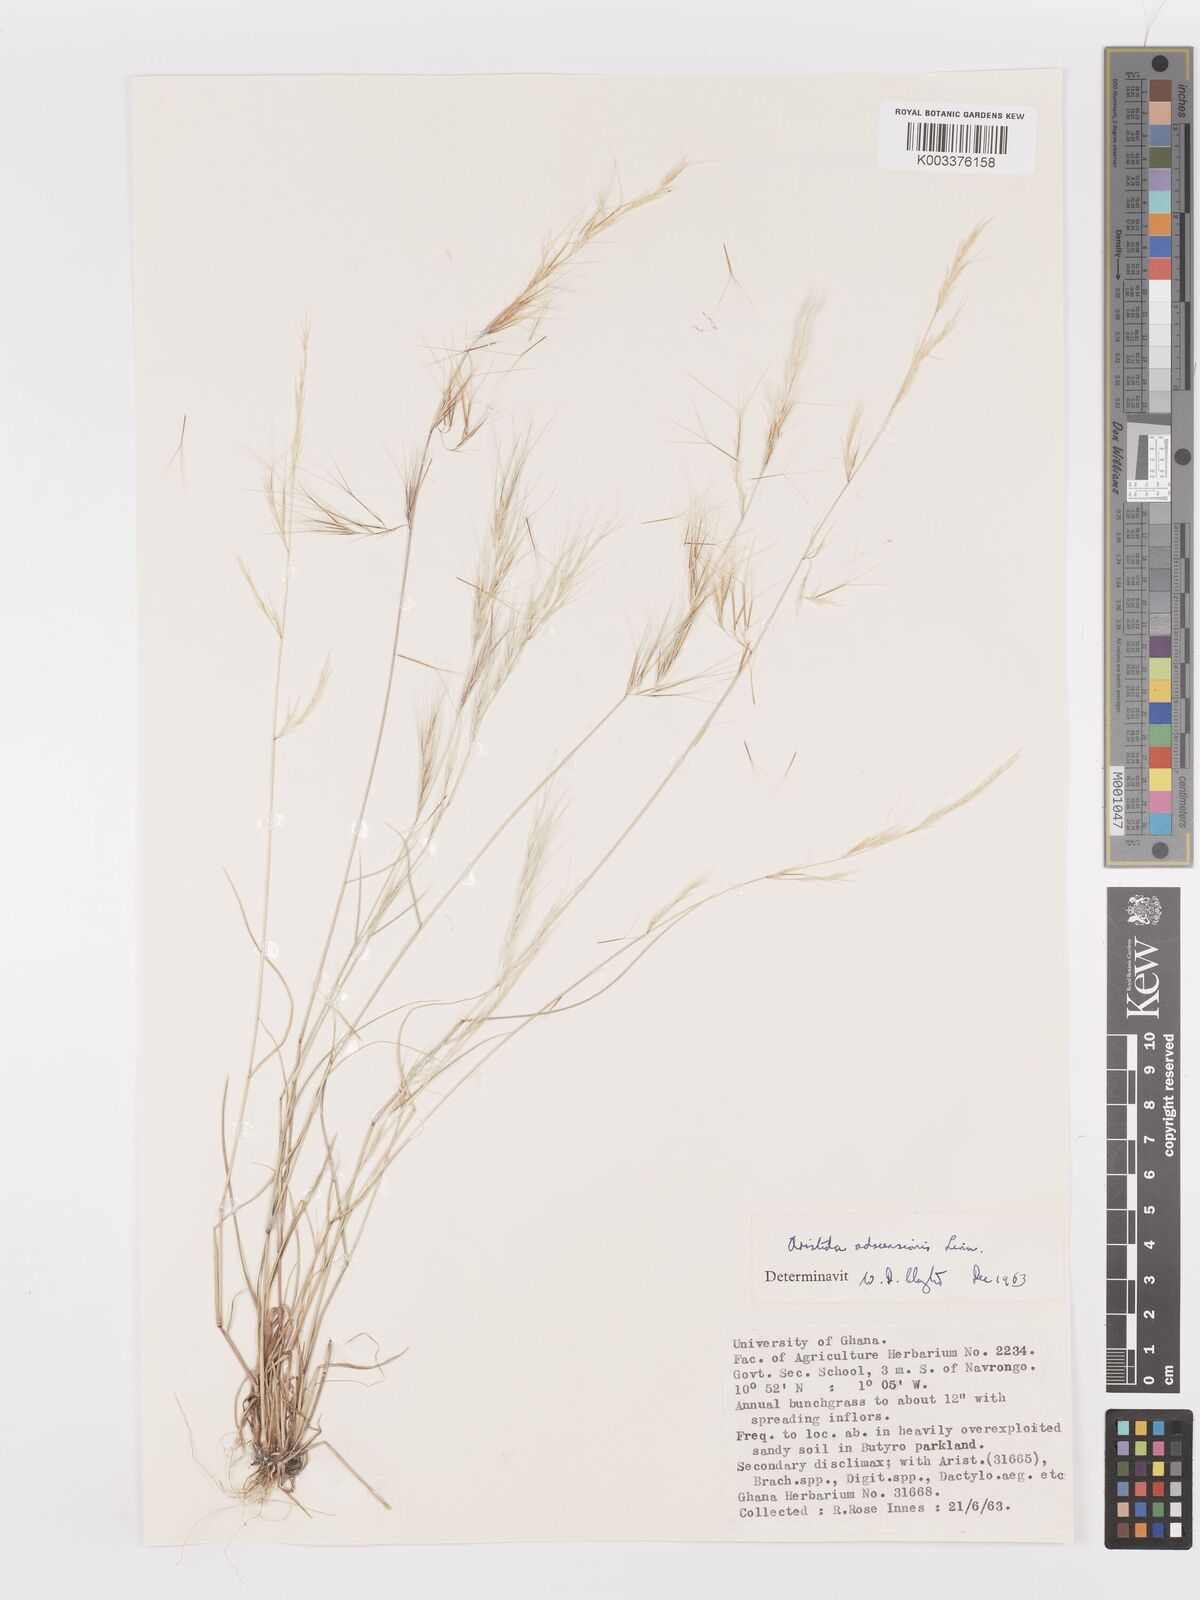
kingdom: Plantae
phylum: Tracheophyta
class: Liliopsida
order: Poales
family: Poaceae
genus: Aristida
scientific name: Aristida adscensionis
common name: Sixweeks threeawn
